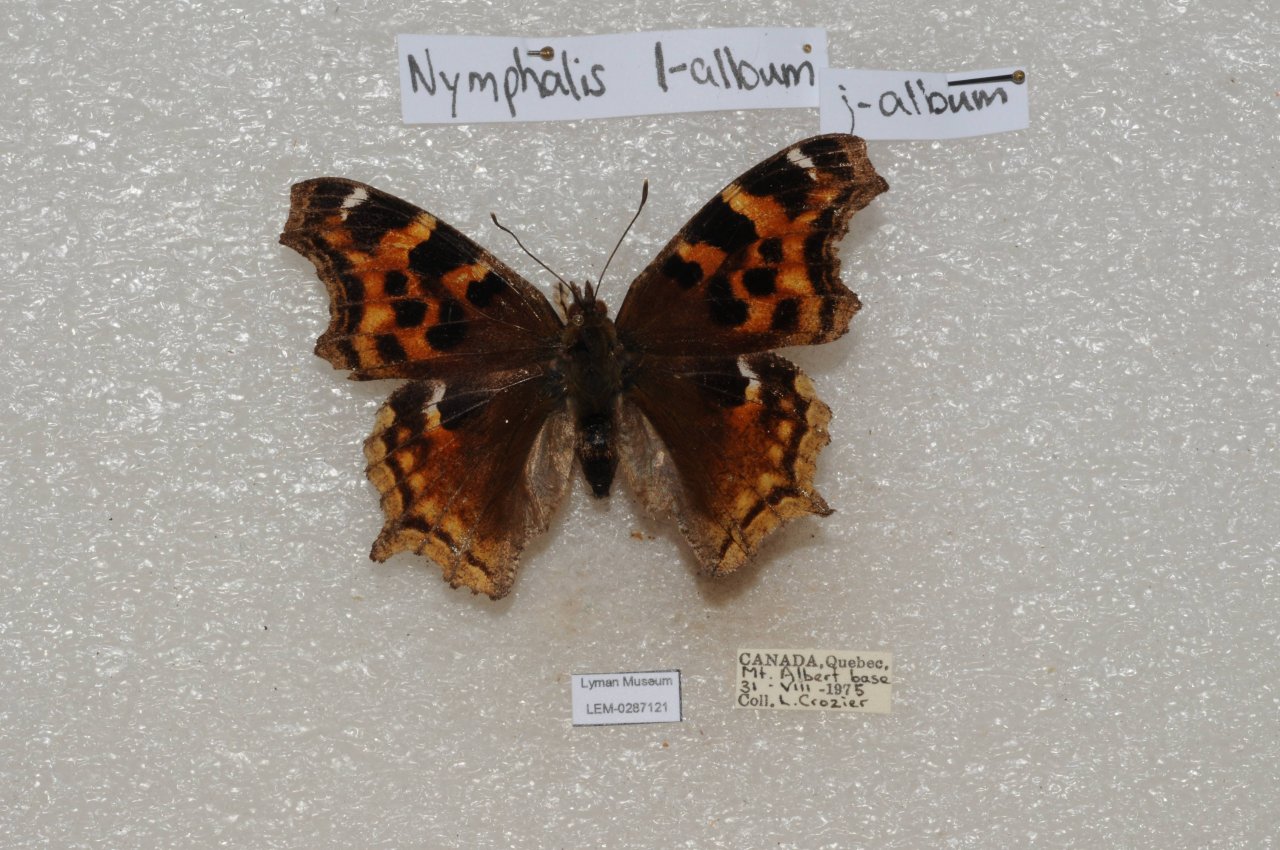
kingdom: Animalia
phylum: Arthropoda
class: Insecta
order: Lepidoptera
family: Nymphalidae
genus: Polygonia
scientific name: Polygonia vaualbum
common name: Compton Tortoiseshell
